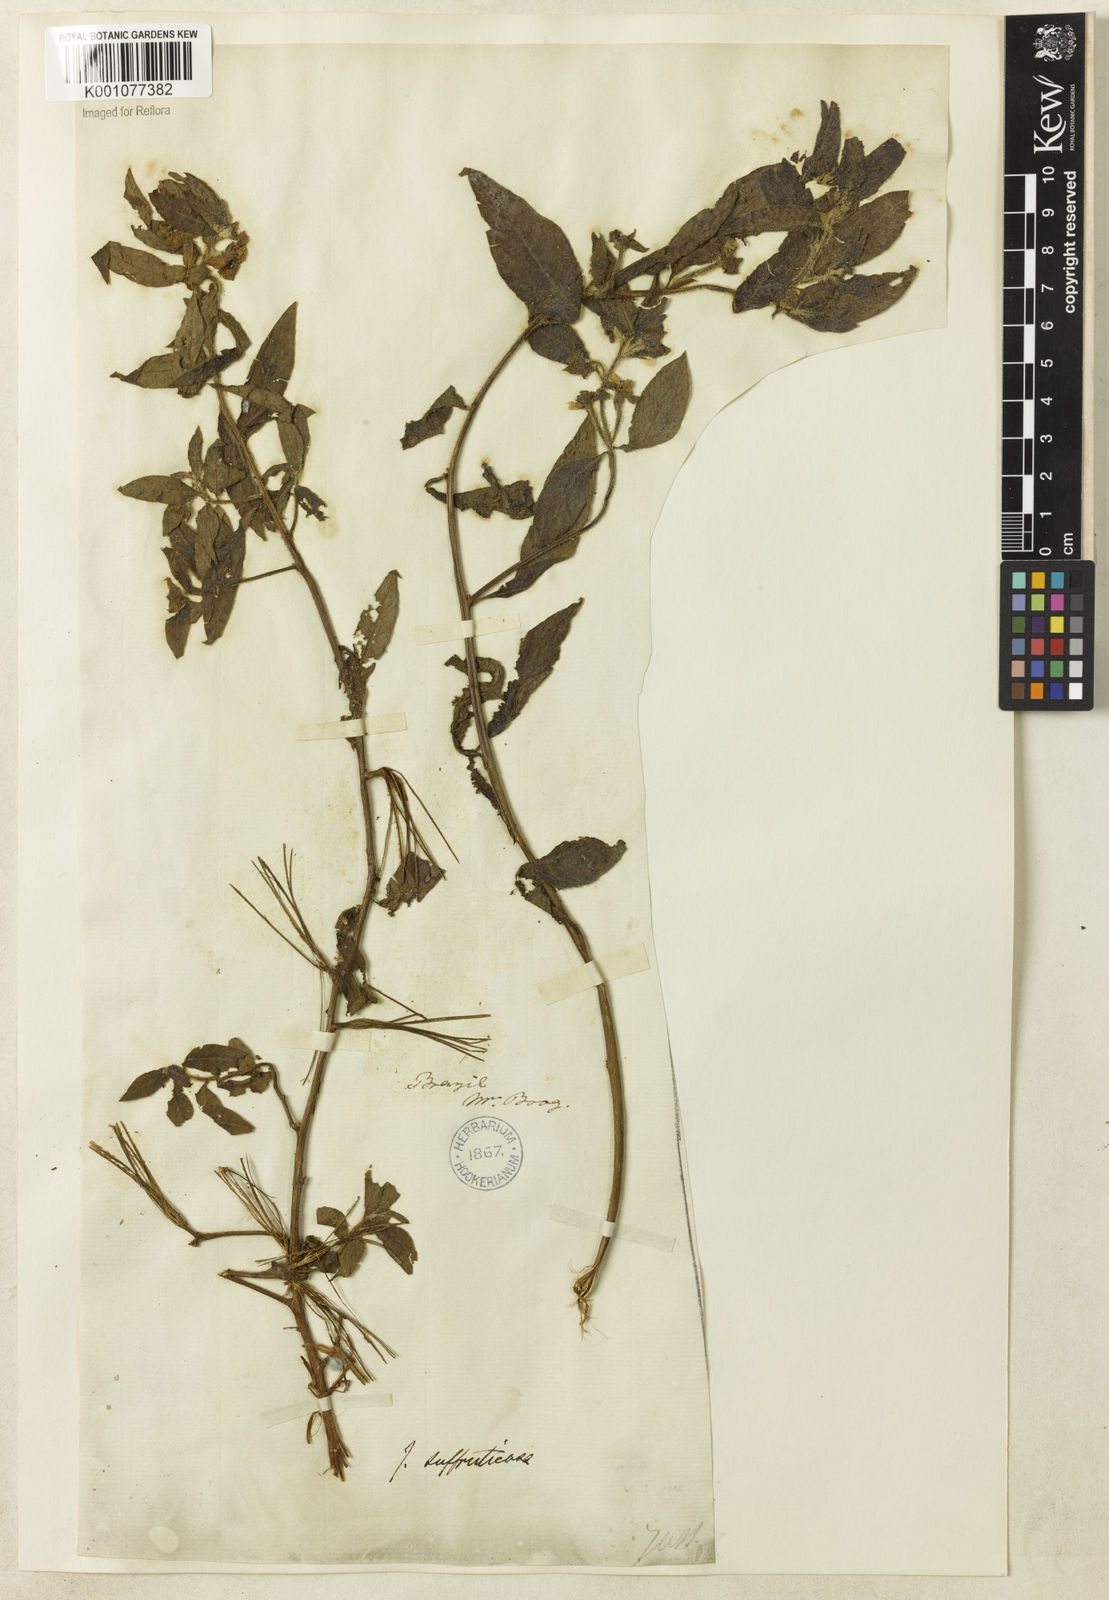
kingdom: Plantae
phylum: Tracheophyta
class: Magnoliopsida
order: Myrtales
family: Onagraceae
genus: Ludwigia
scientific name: Ludwigia octovalvis
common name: Water-primrose
